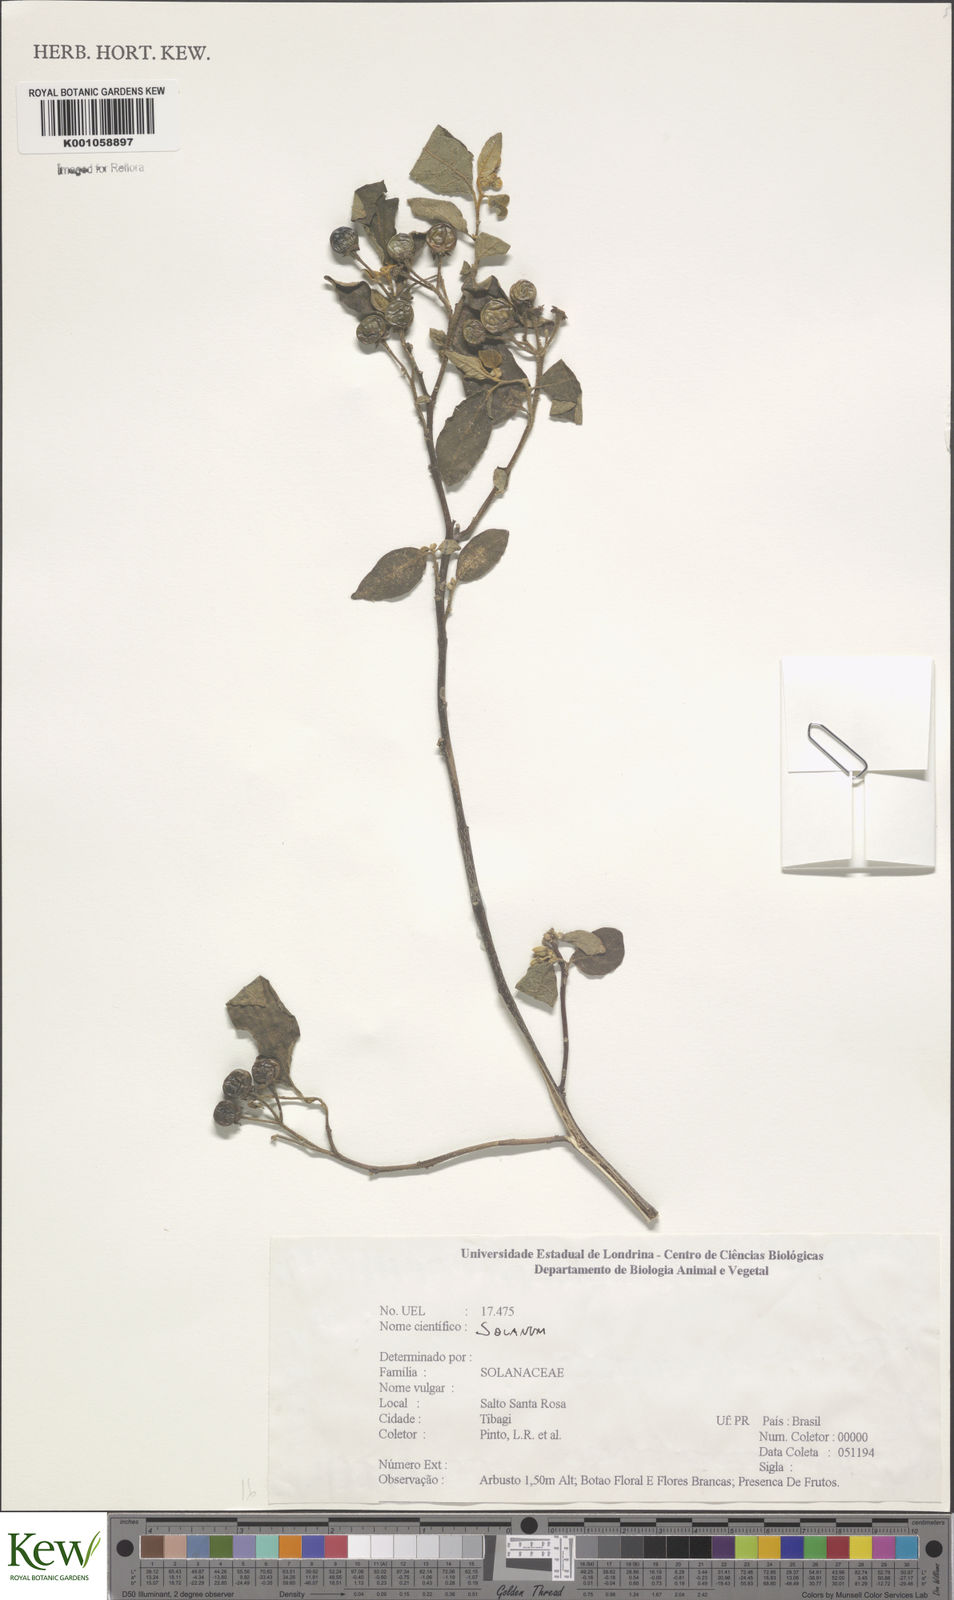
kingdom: Plantae
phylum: Tracheophyta
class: Magnoliopsida
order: Solanales
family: Solanaceae
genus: Solanum
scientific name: Solanum
